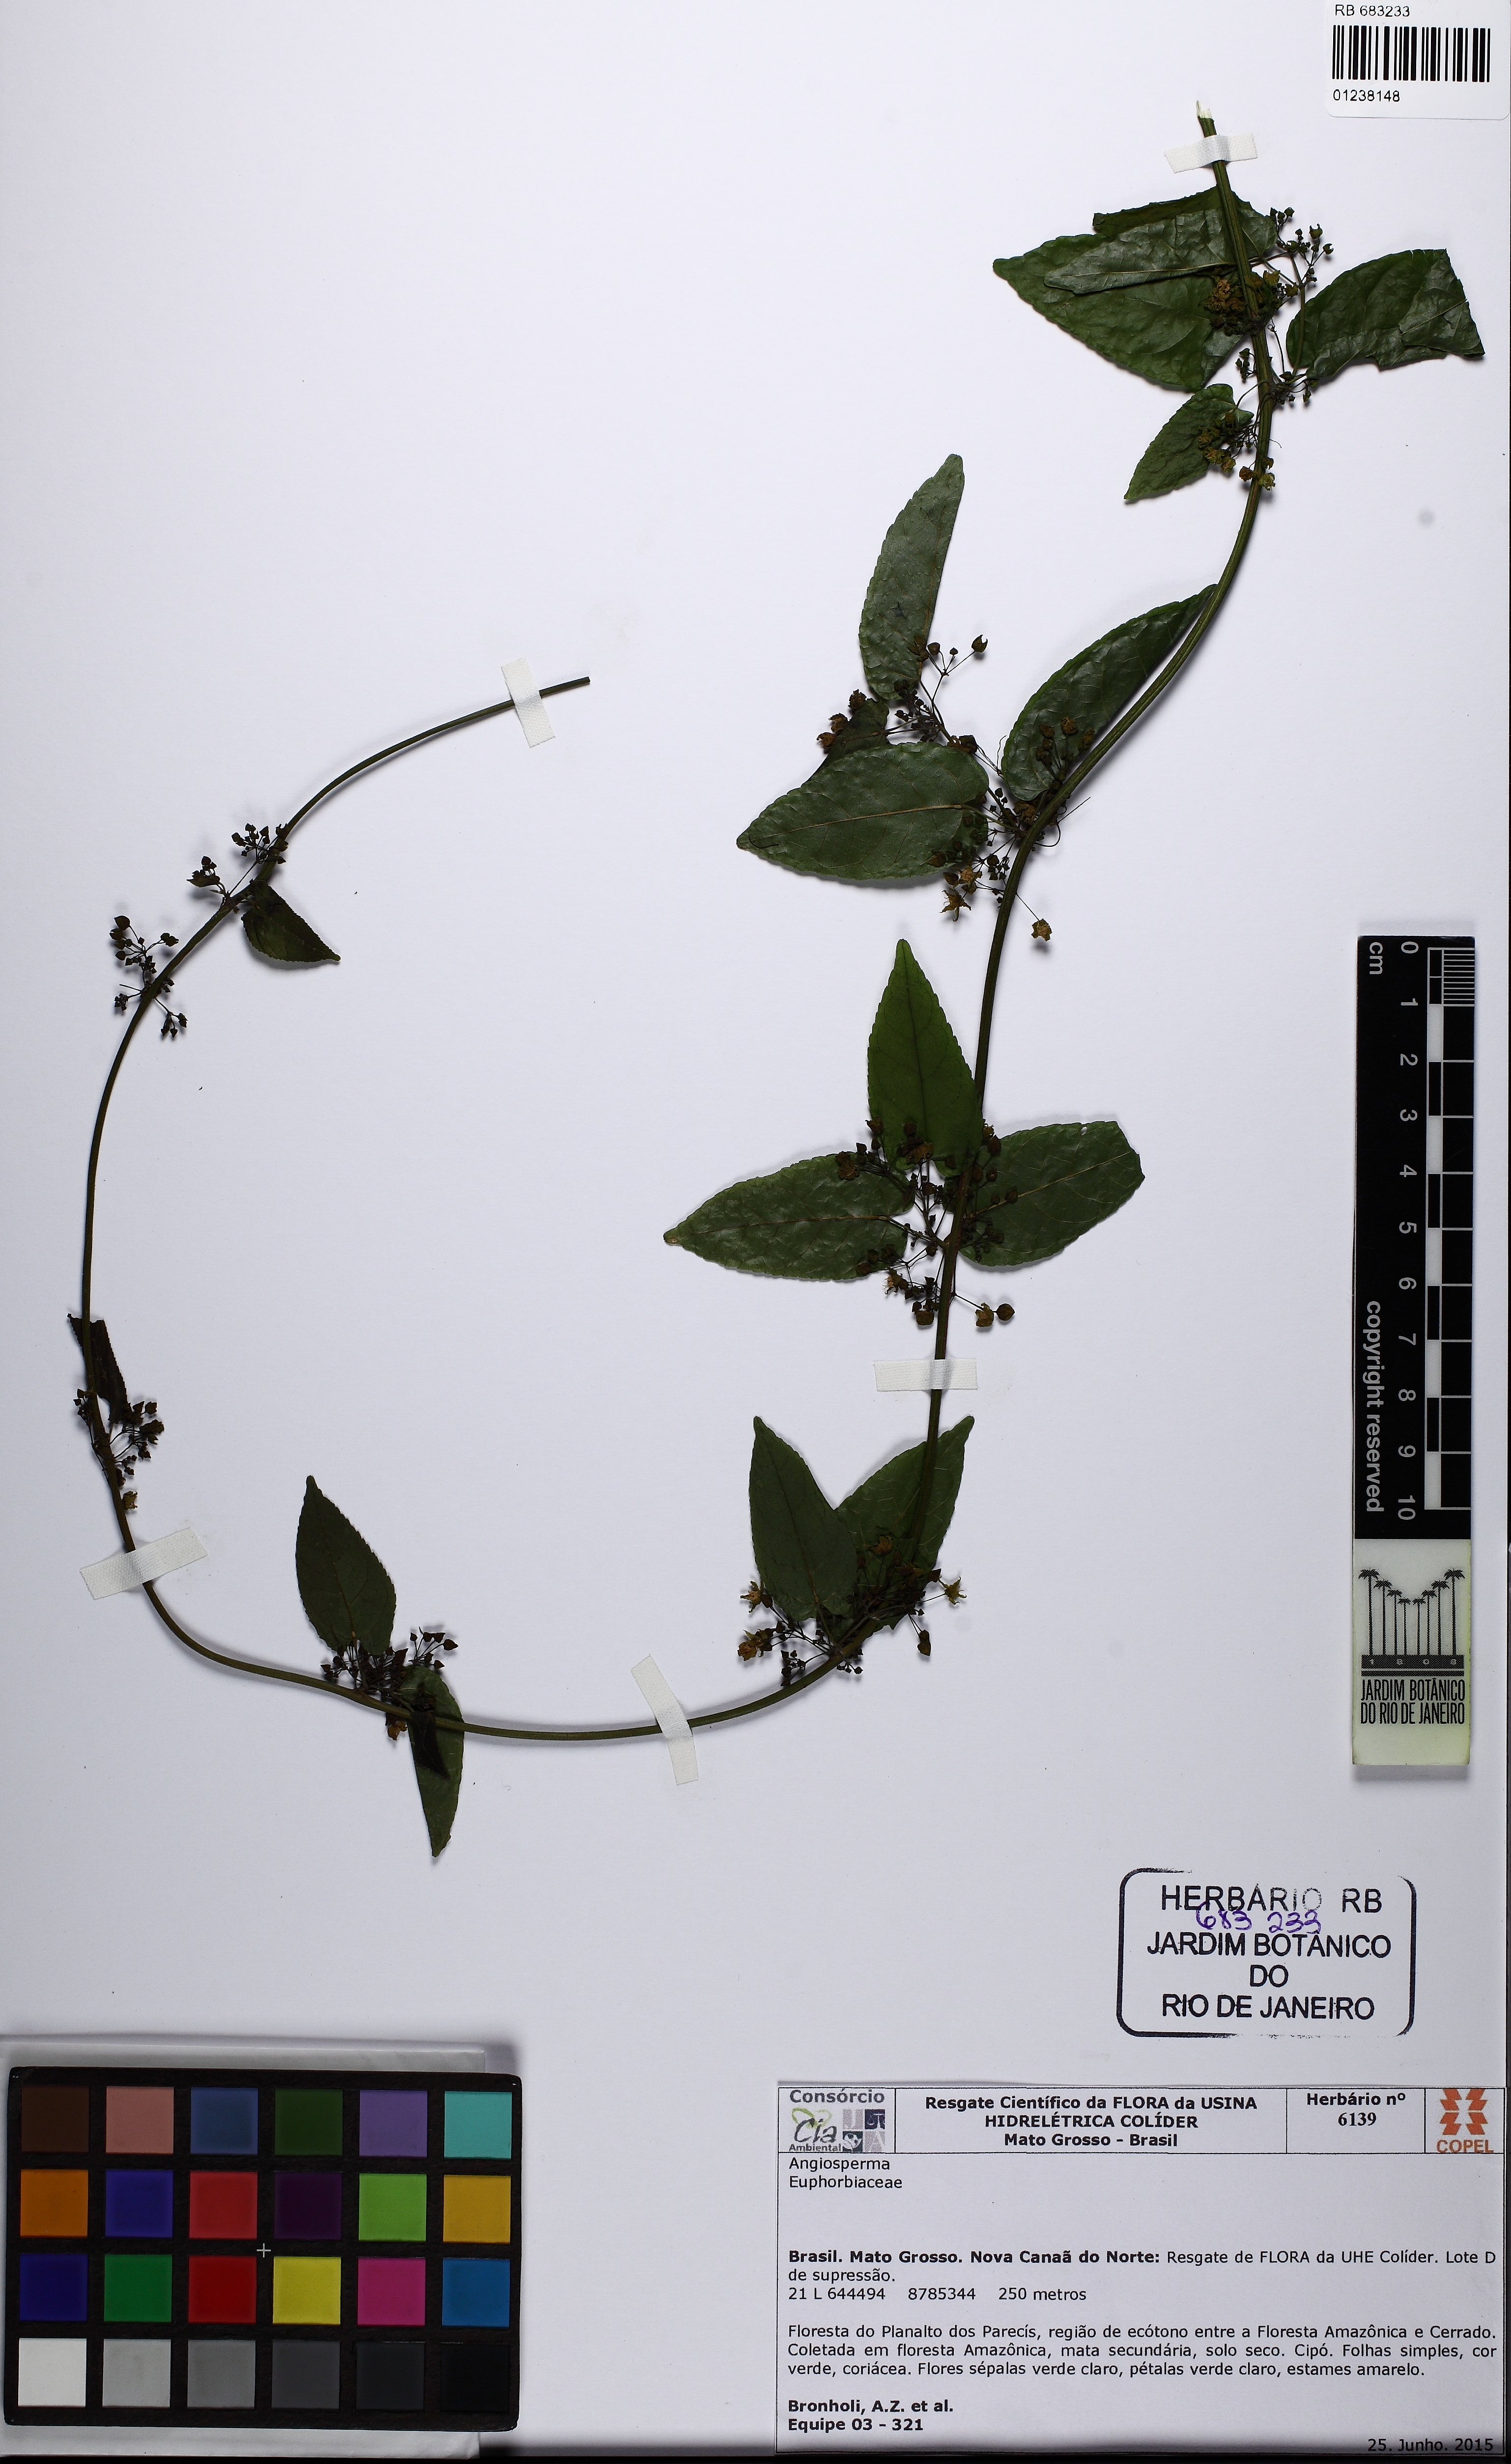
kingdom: Plantae
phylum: Tracheophyta
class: Magnoliopsida
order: Gentianales
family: Apocynaceae
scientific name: Apocynaceae
